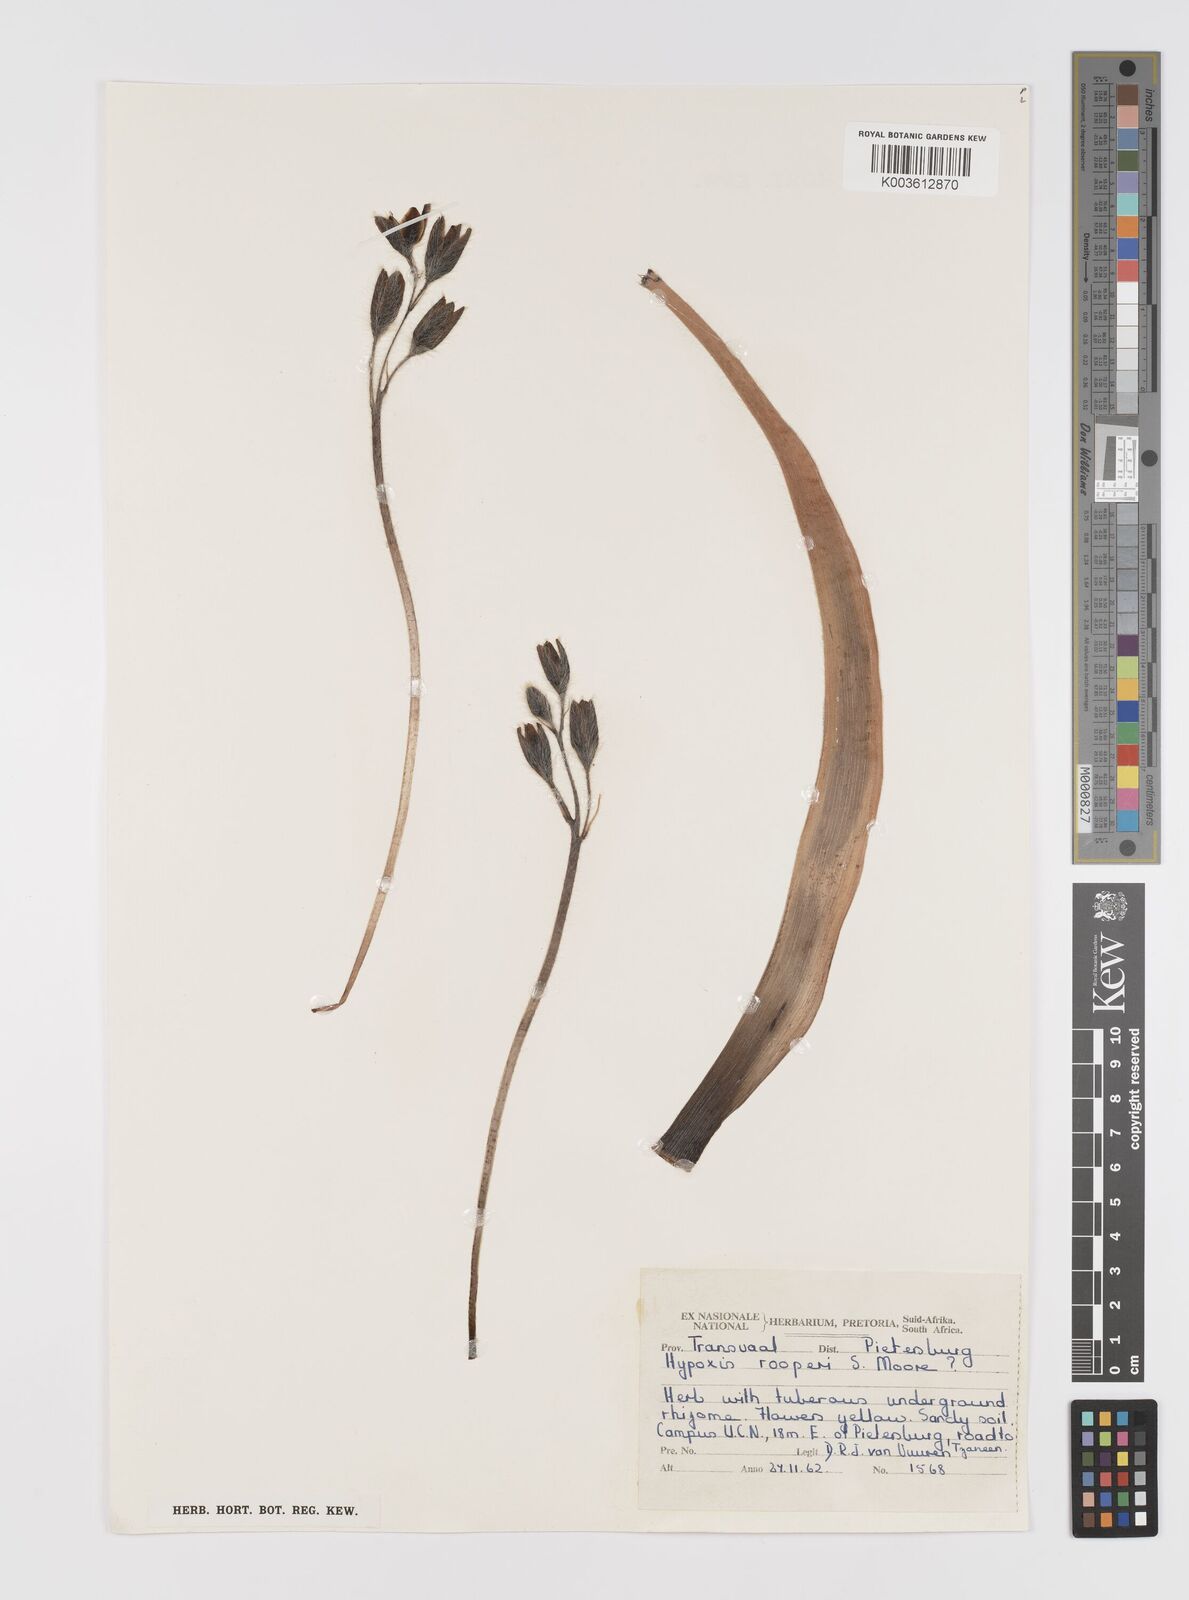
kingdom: Plantae
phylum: Tracheophyta
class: Liliopsida
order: Asparagales
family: Hypoxidaceae
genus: Hypoxis
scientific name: Hypoxis hemerocallidea
